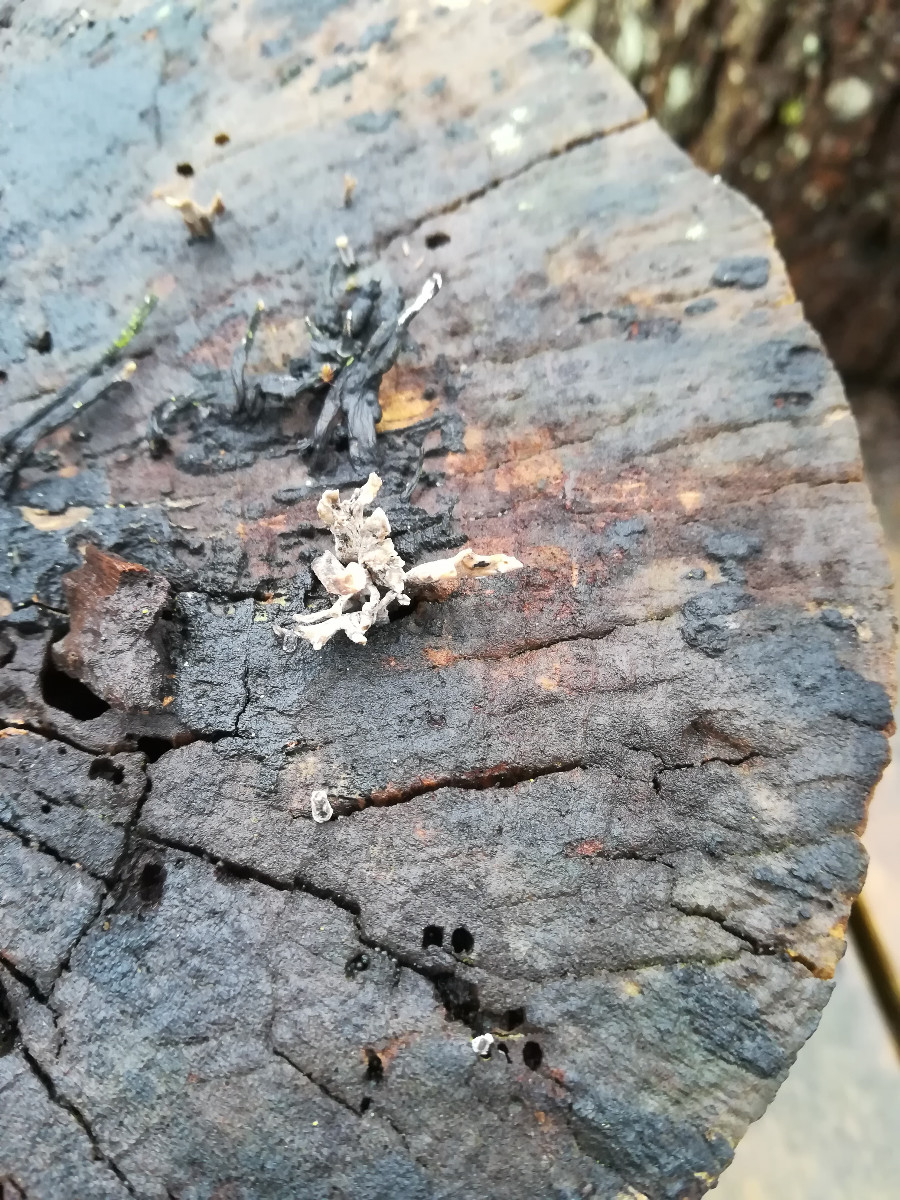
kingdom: Fungi
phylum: Ascomycota
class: Sordariomycetes
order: Xylariales
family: Xylariaceae
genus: Xylaria
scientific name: Xylaria hypoxylon
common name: grenet stødsvamp
